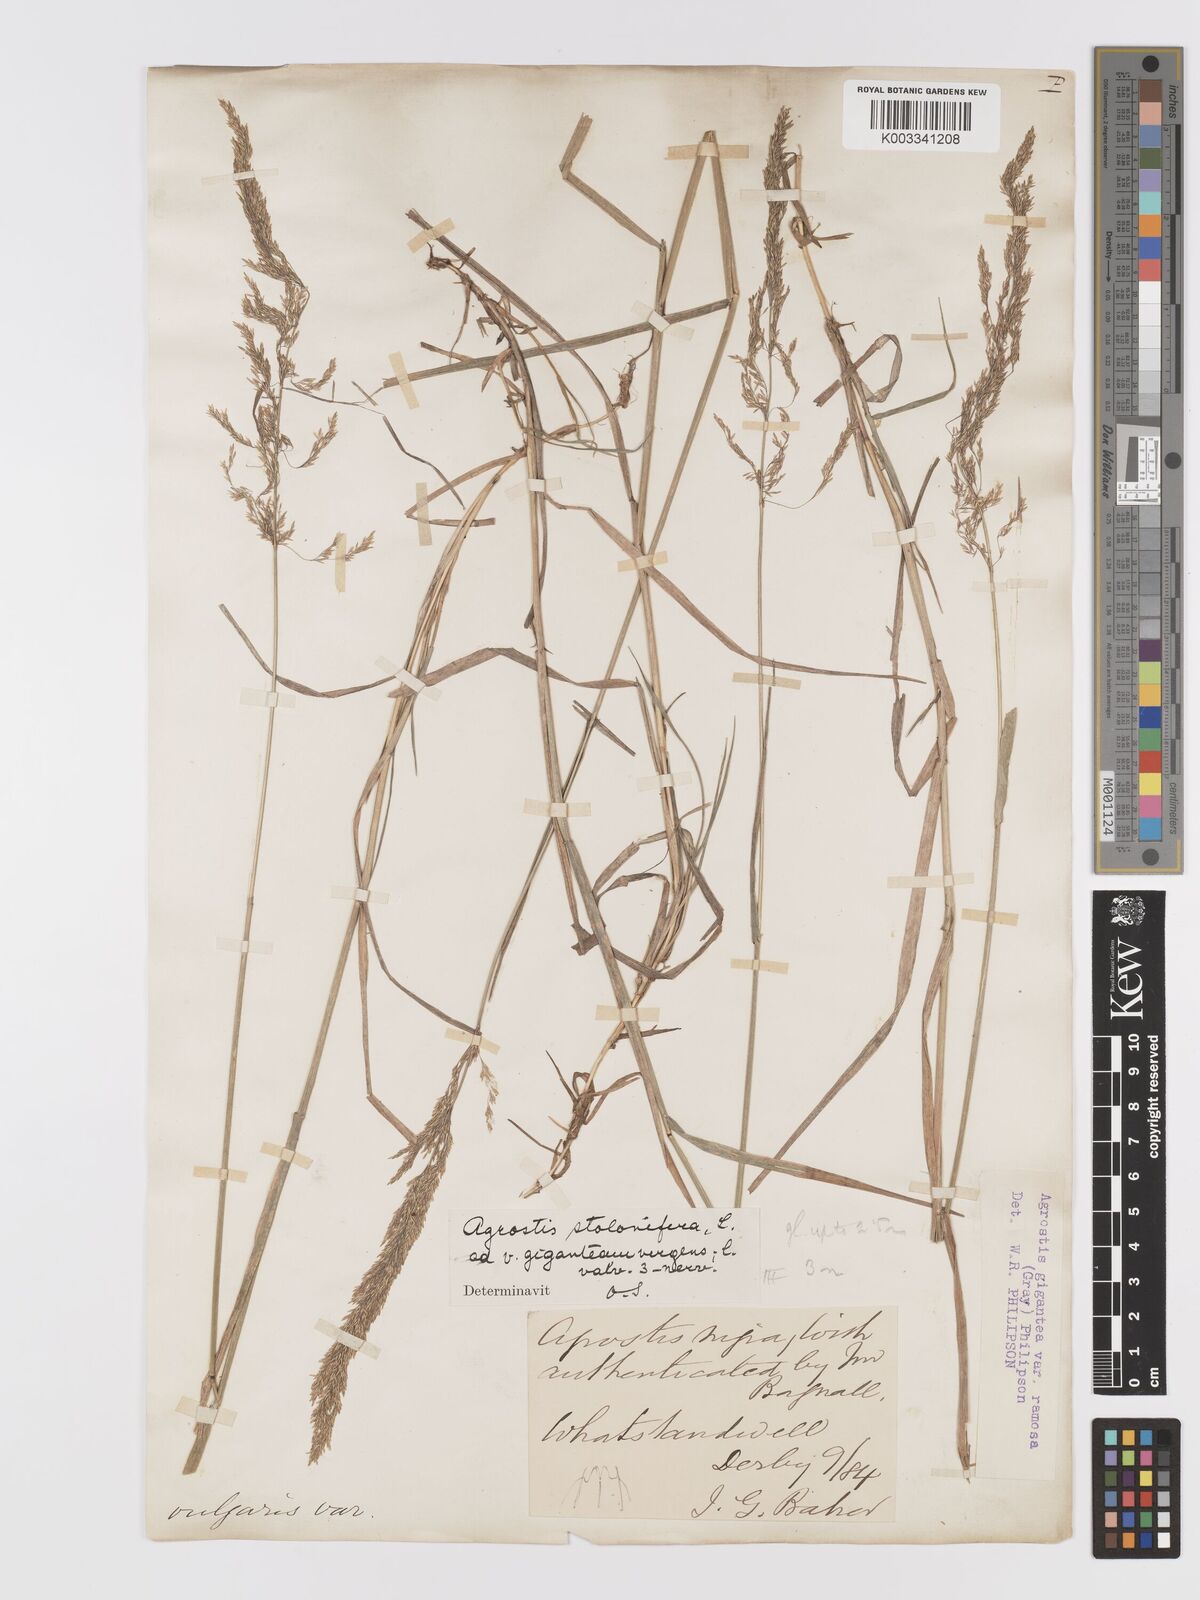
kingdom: Plantae
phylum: Tracheophyta
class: Liliopsida
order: Poales
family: Poaceae
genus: Agrostis
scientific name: Agrostis gigantea
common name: Black bent
